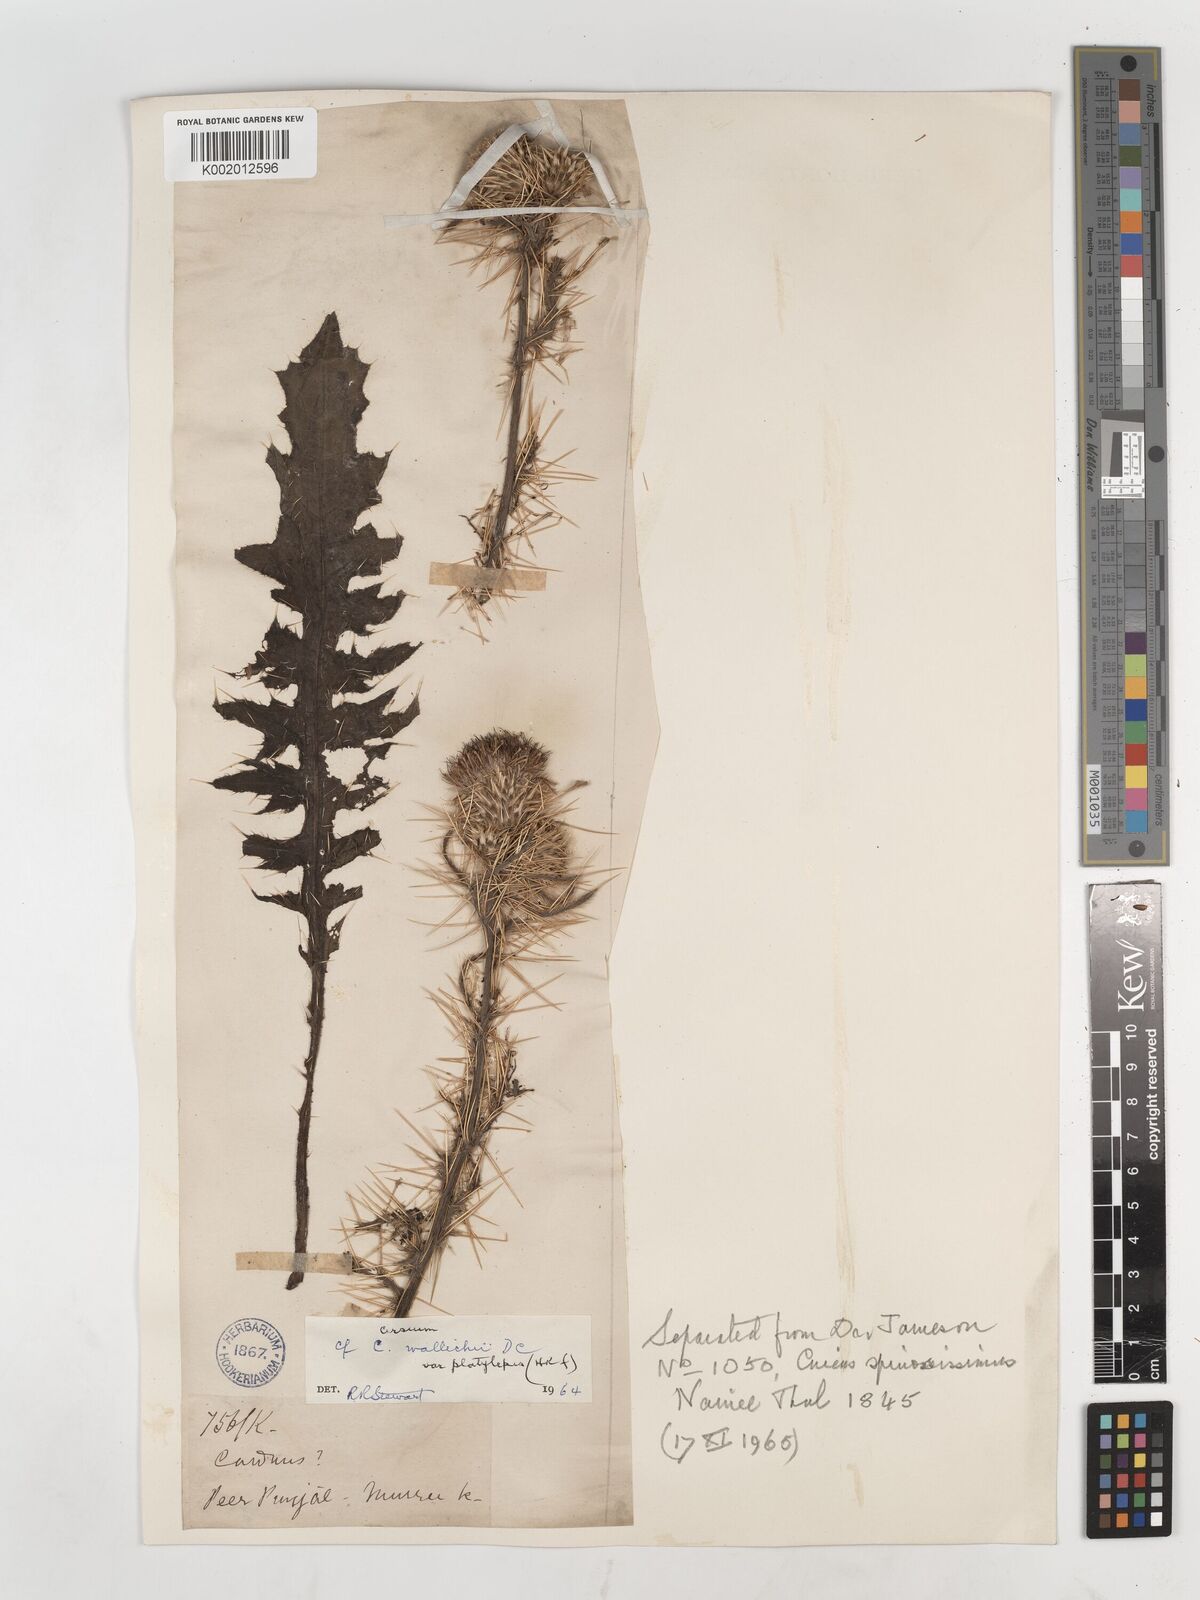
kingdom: Plantae
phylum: Tracheophyta
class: Magnoliopsida
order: Asterales
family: Asteraceae
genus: Cirsium
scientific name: Cirsium wallichii
